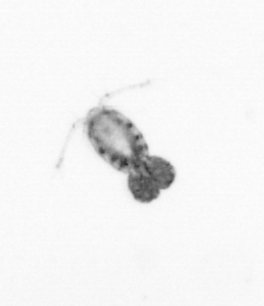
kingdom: Animalia
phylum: Arthropoda
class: Copepoda
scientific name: Copepoda
